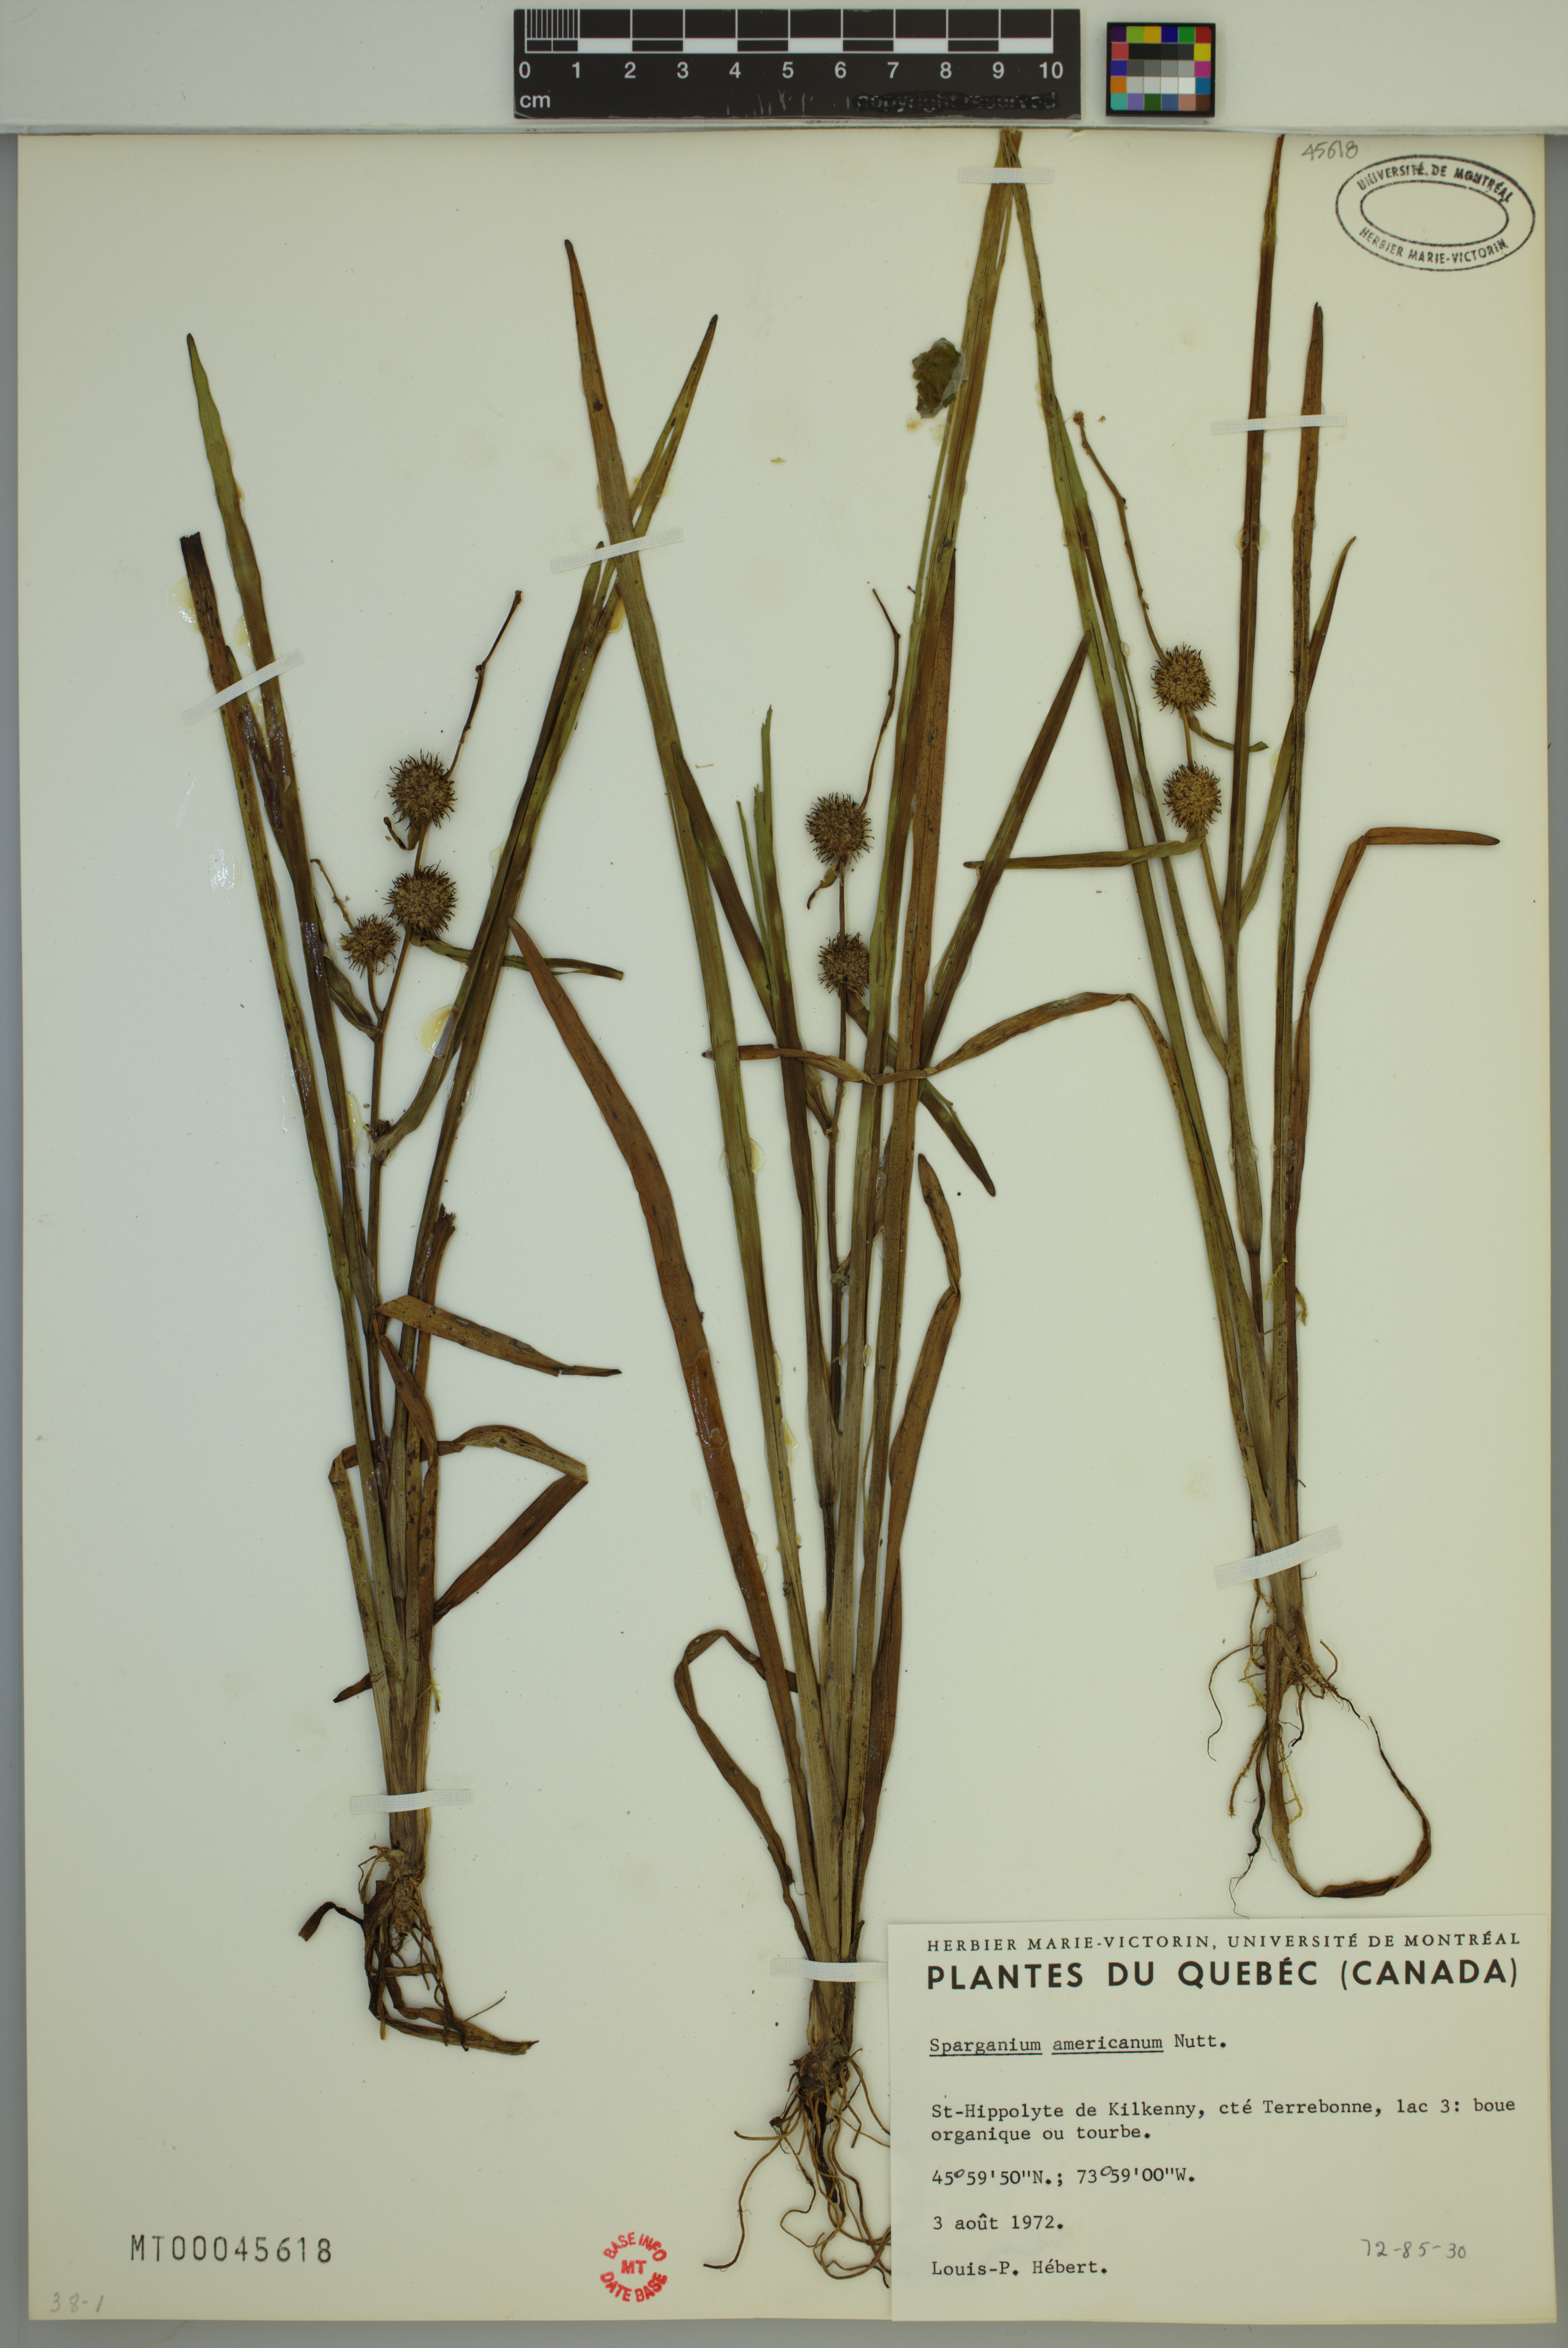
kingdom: Plantae
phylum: Tracheophyta
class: Liliopsida
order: Poales
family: Typhaceae
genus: Sparganium
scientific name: Sparganium americanum
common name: American burreed
